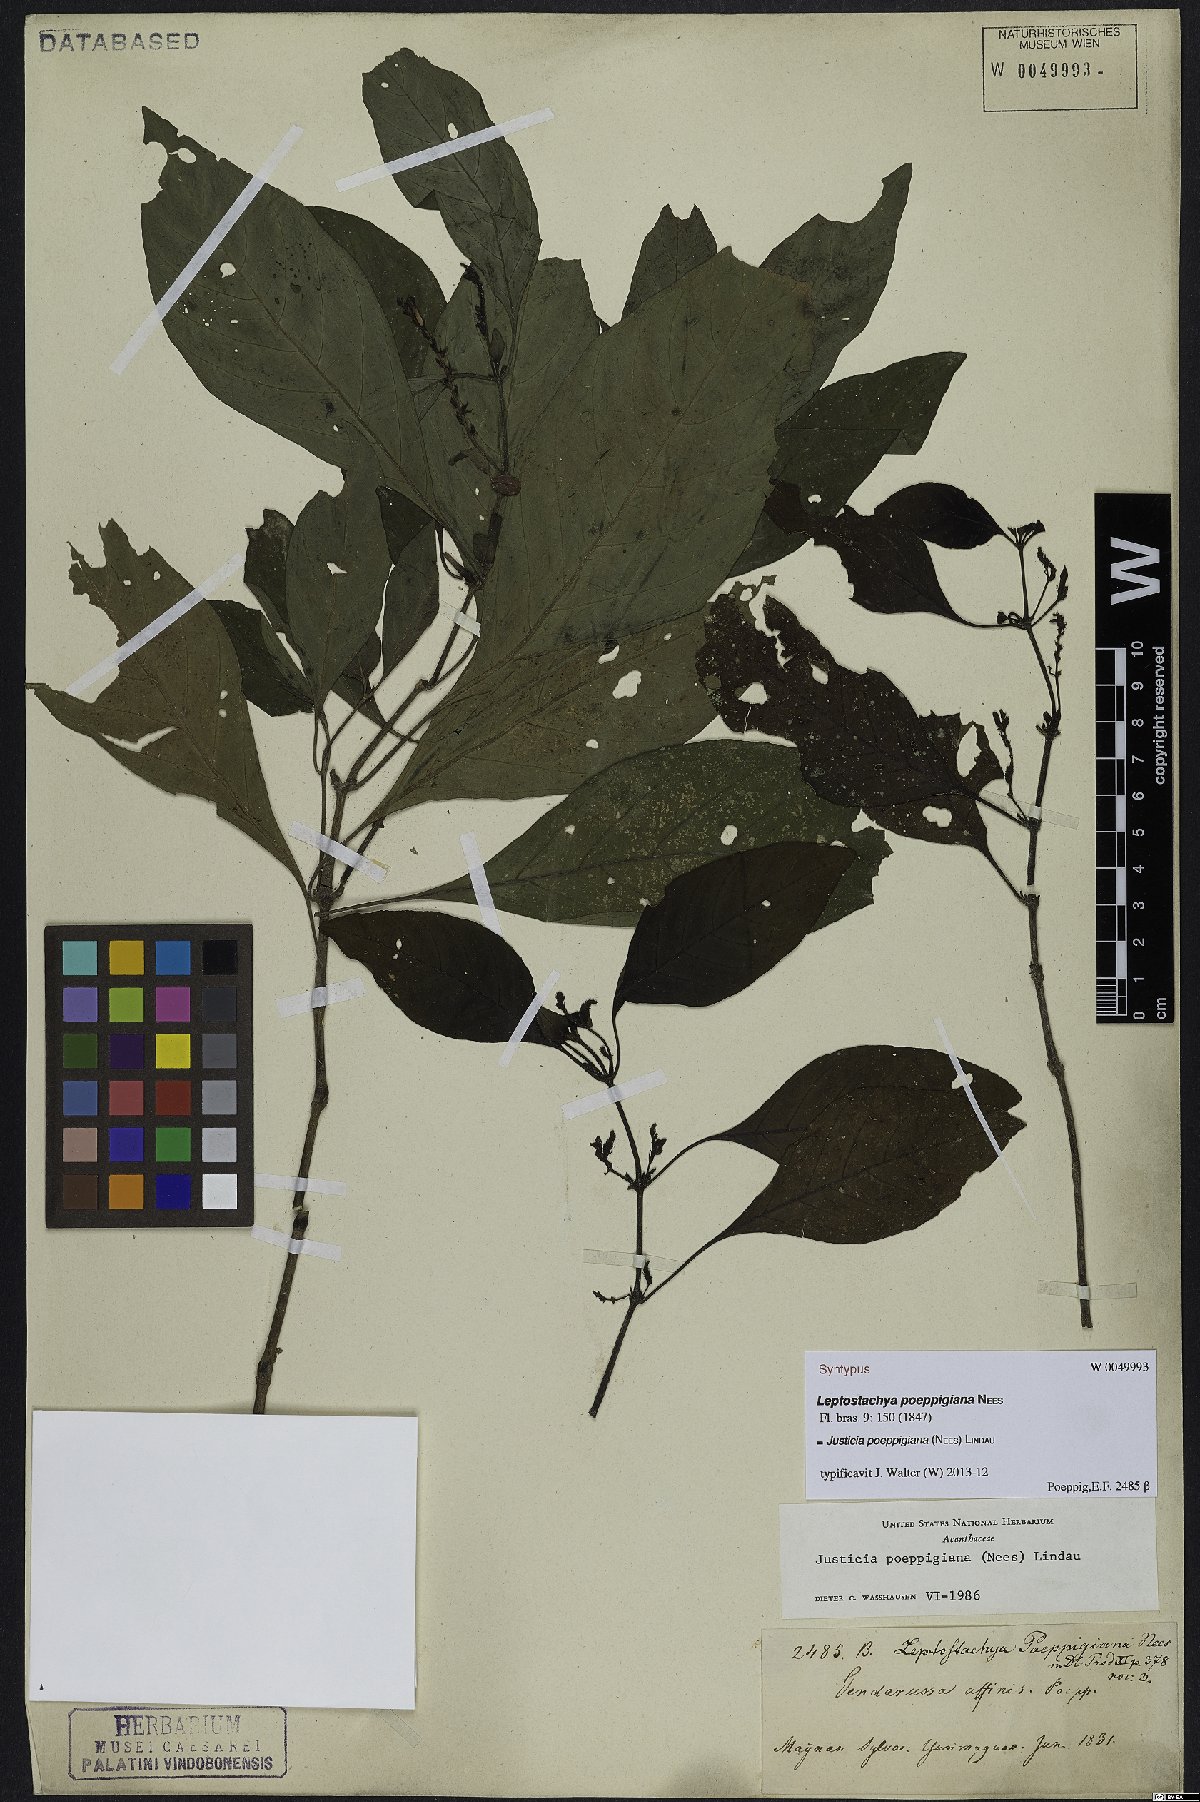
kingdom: Plantae
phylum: Tracheophyta
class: Magnoliopsida
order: Lamiales
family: Acanthaceae
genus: Justicia
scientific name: Justicia poeppigiana
